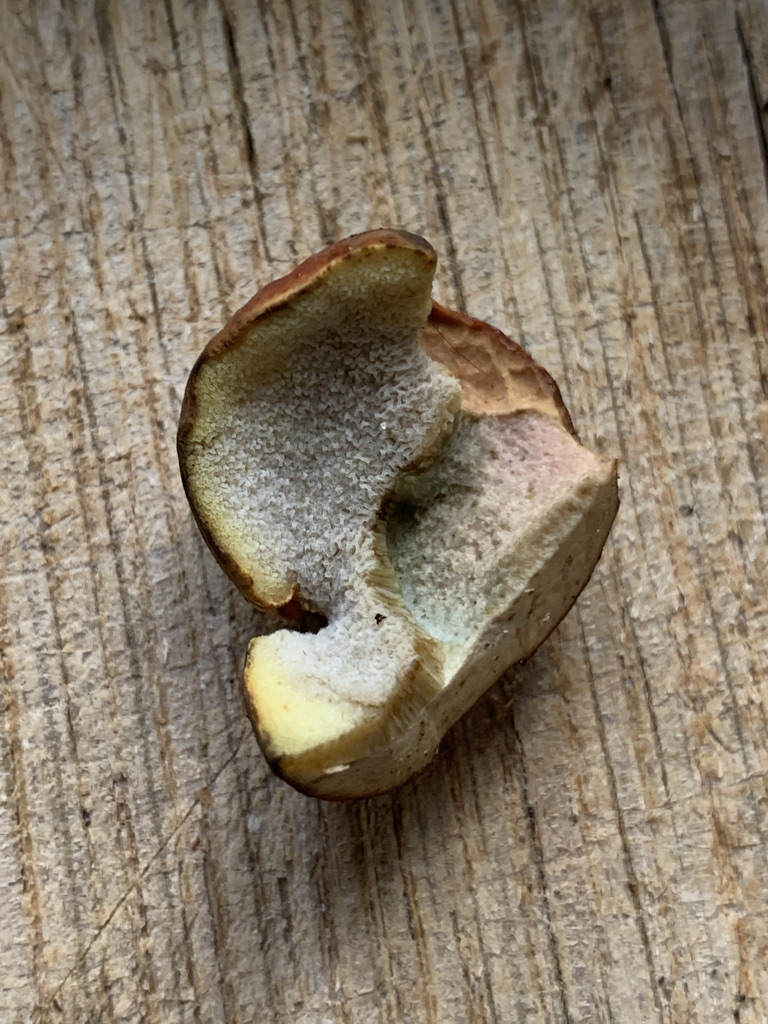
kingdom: Fungi
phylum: Basidiomycota
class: Agaricomycetes
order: Boletales
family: Boletaceae
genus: Hortiboletus
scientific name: Hortiboletus bubalinus
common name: aurora-rørhat
